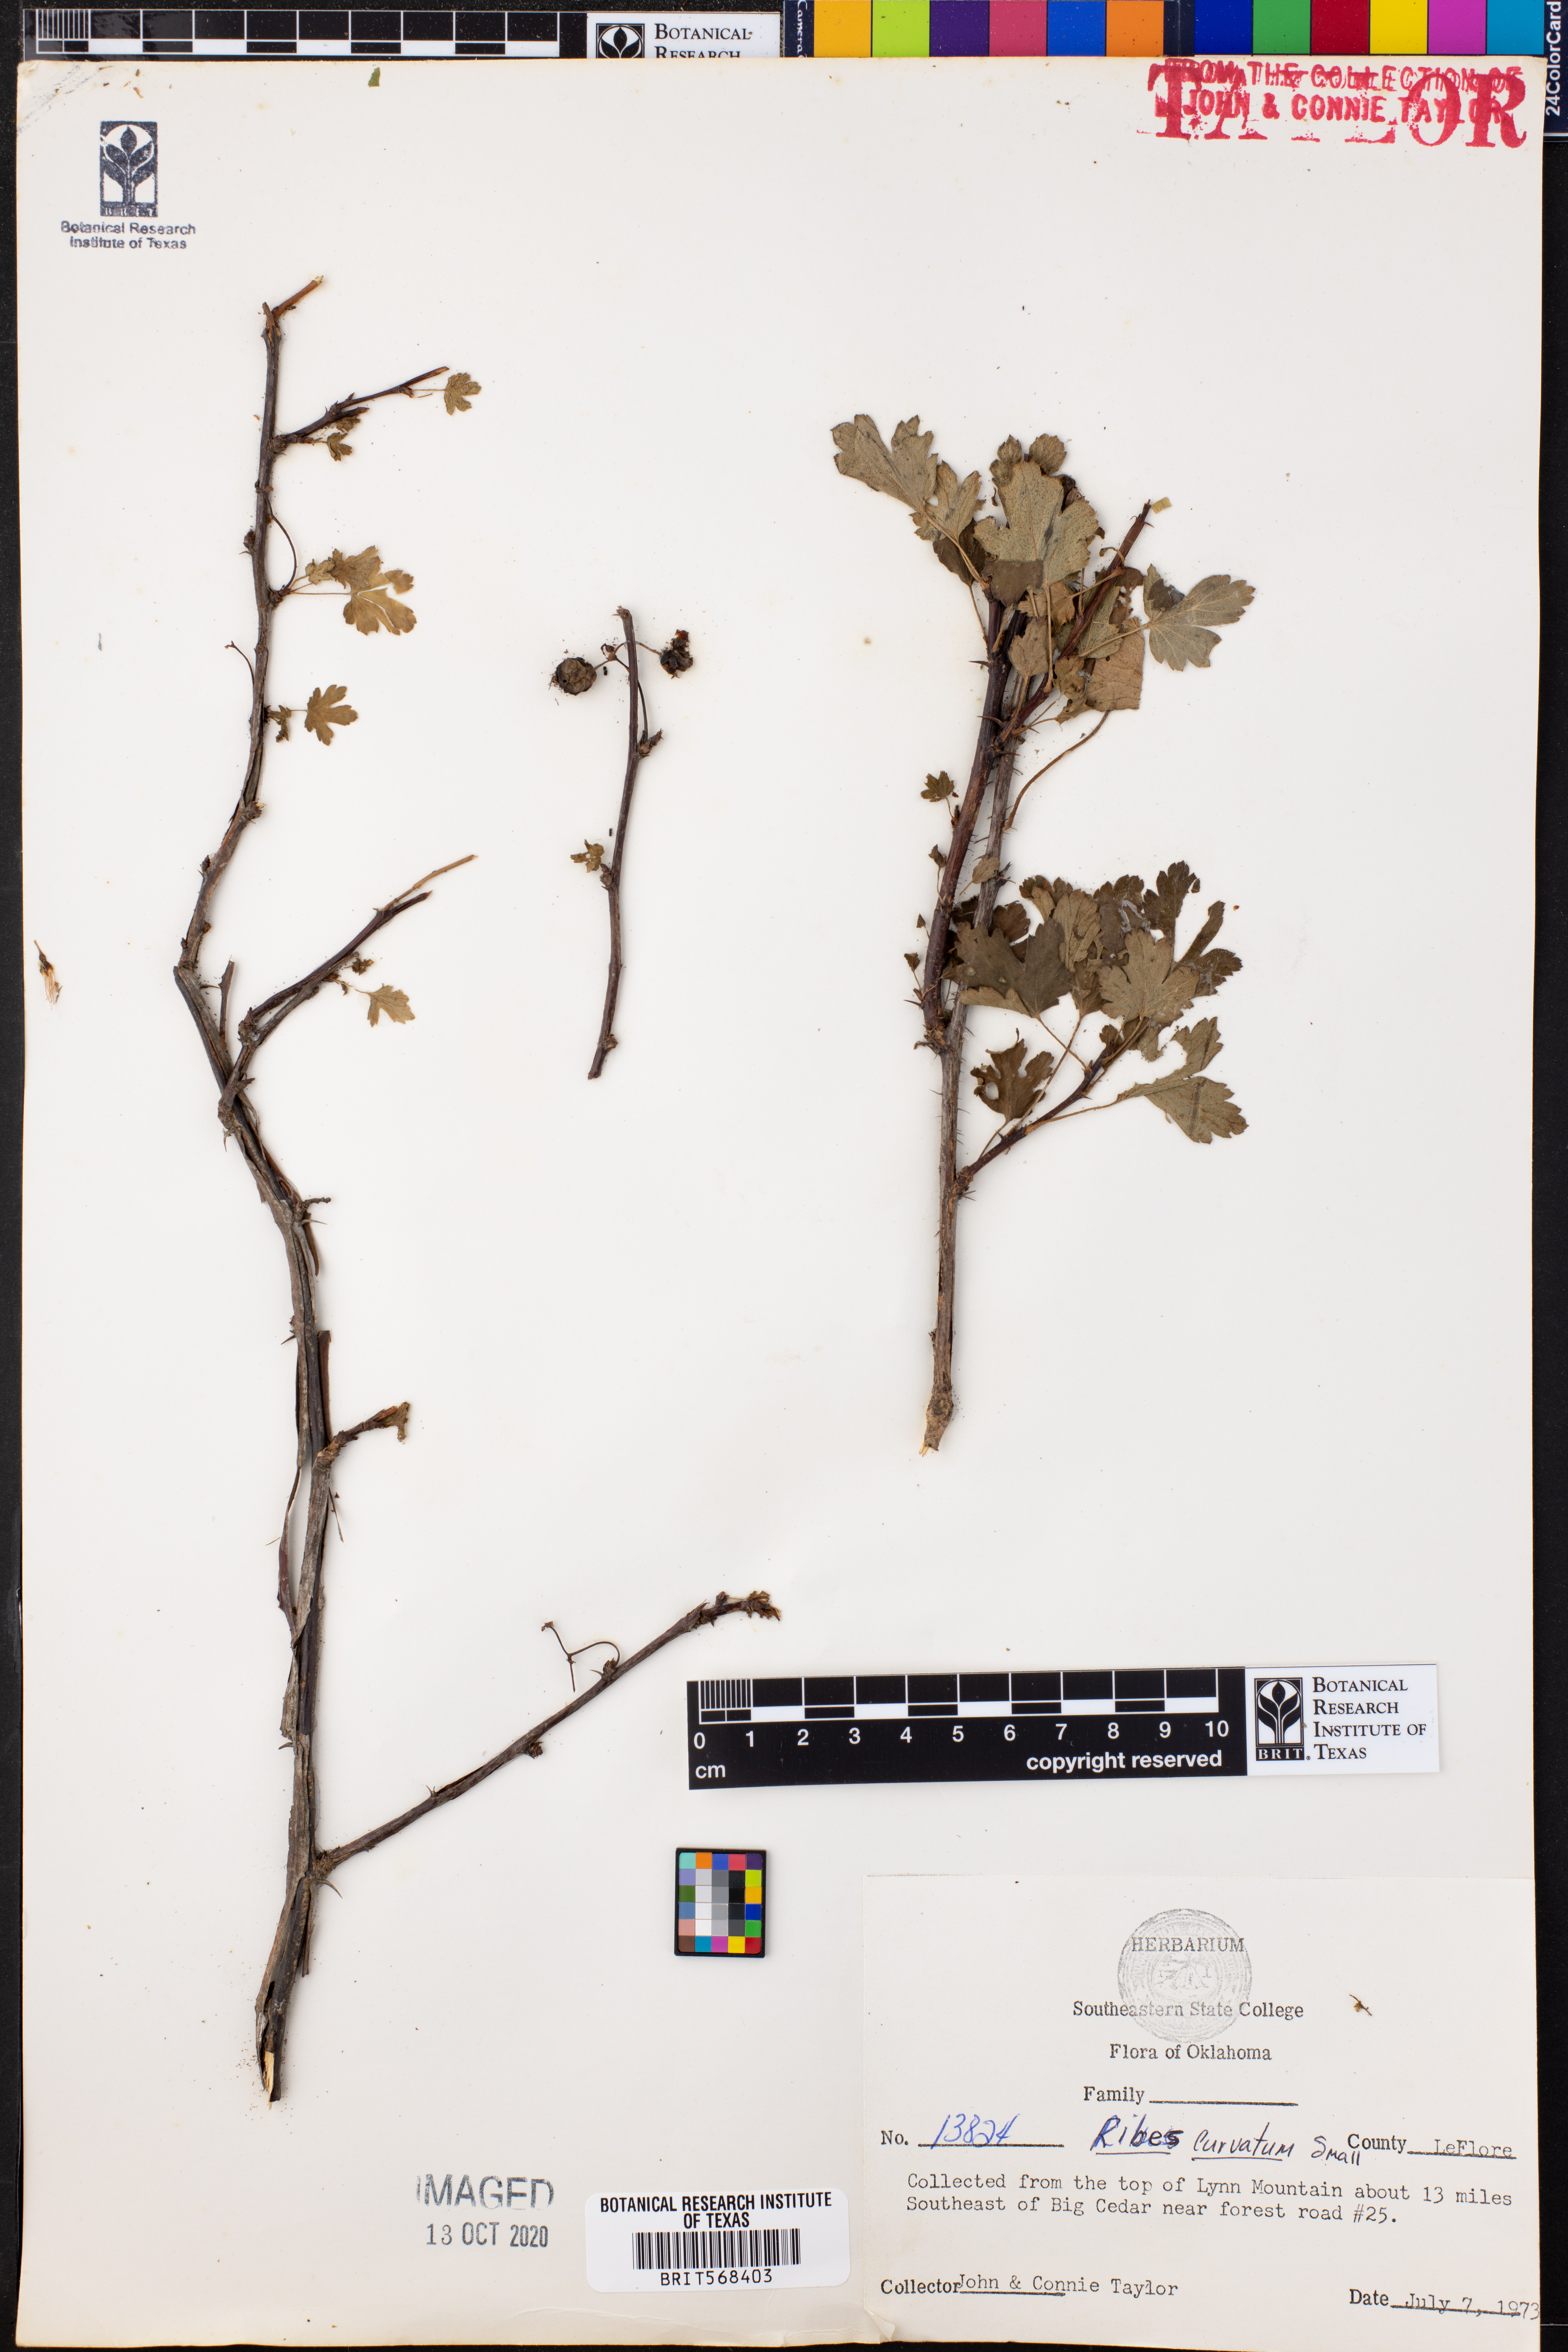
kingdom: Plantae
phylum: Tracheophyta
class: Magnoliopsida
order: Saxifragales
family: Grossulariaceae
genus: Ribes
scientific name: Ribes curvatum
